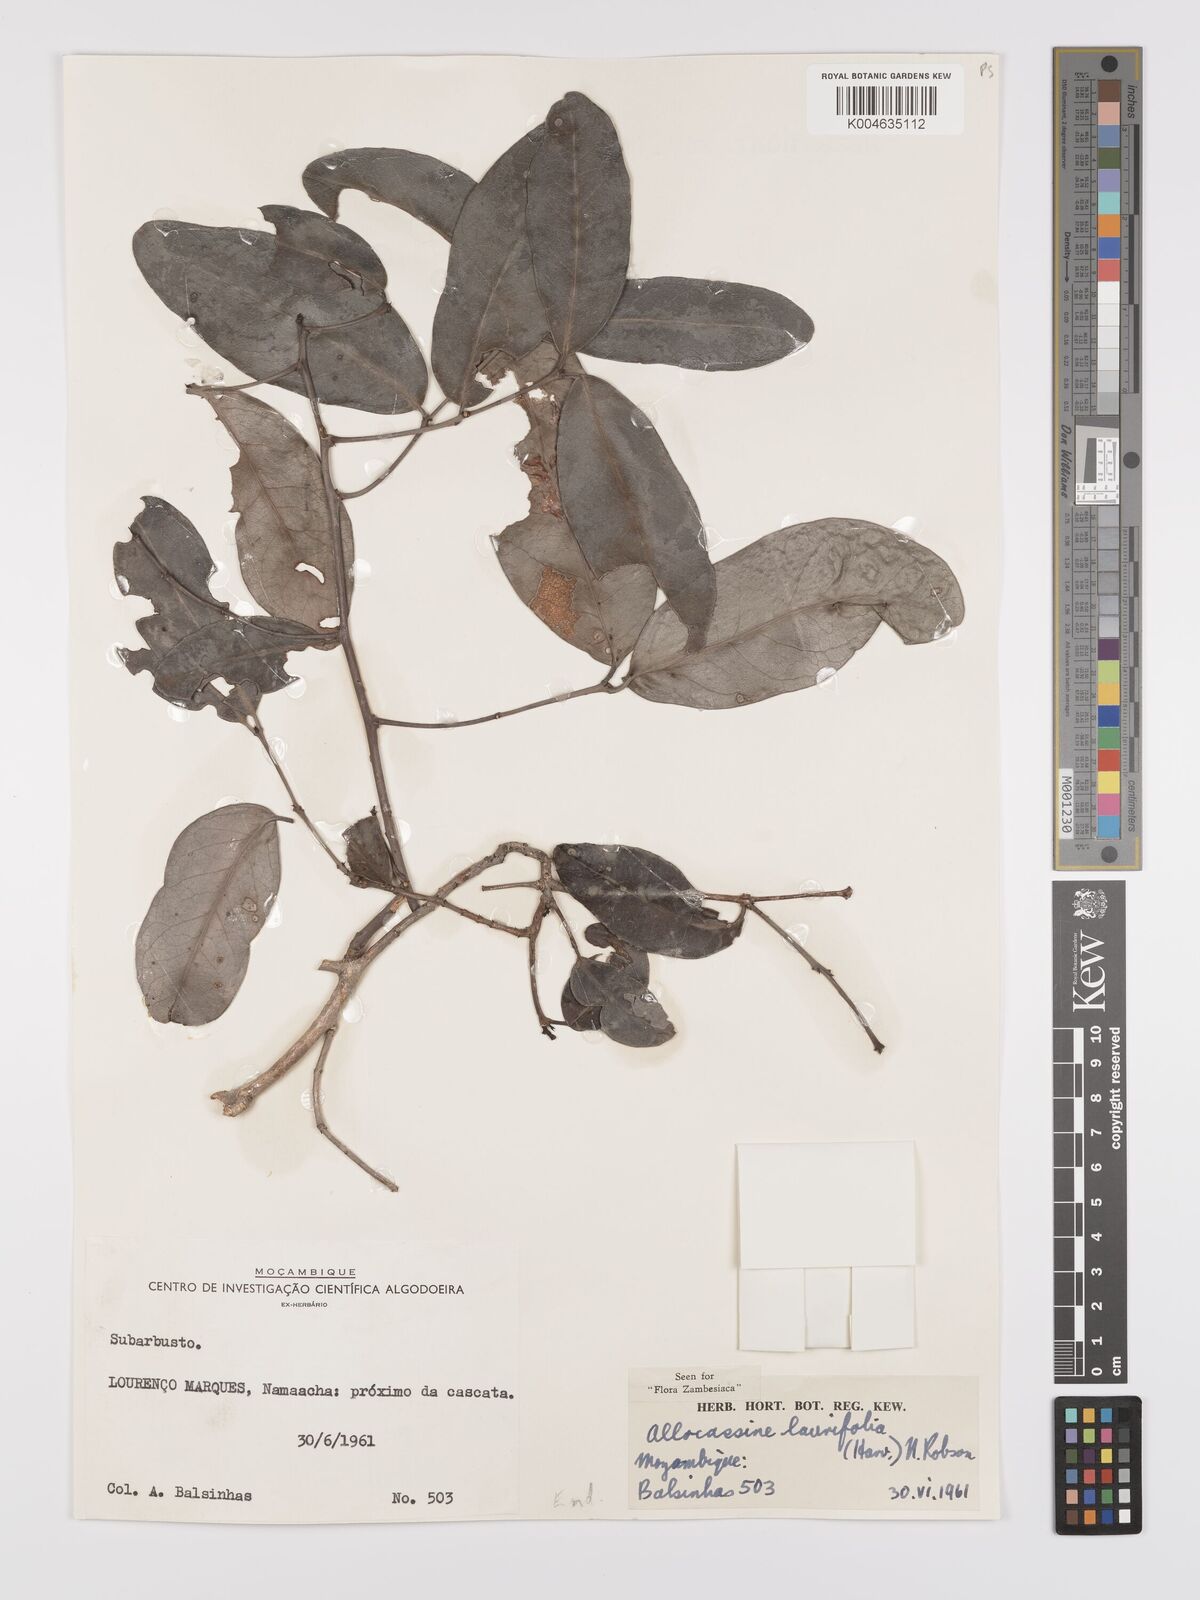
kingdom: Plantae
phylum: Tracheophyta
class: Magnoliopsida
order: Celastrales
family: Celastraceae
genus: Allocassine
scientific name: Allocassine laurifolia
